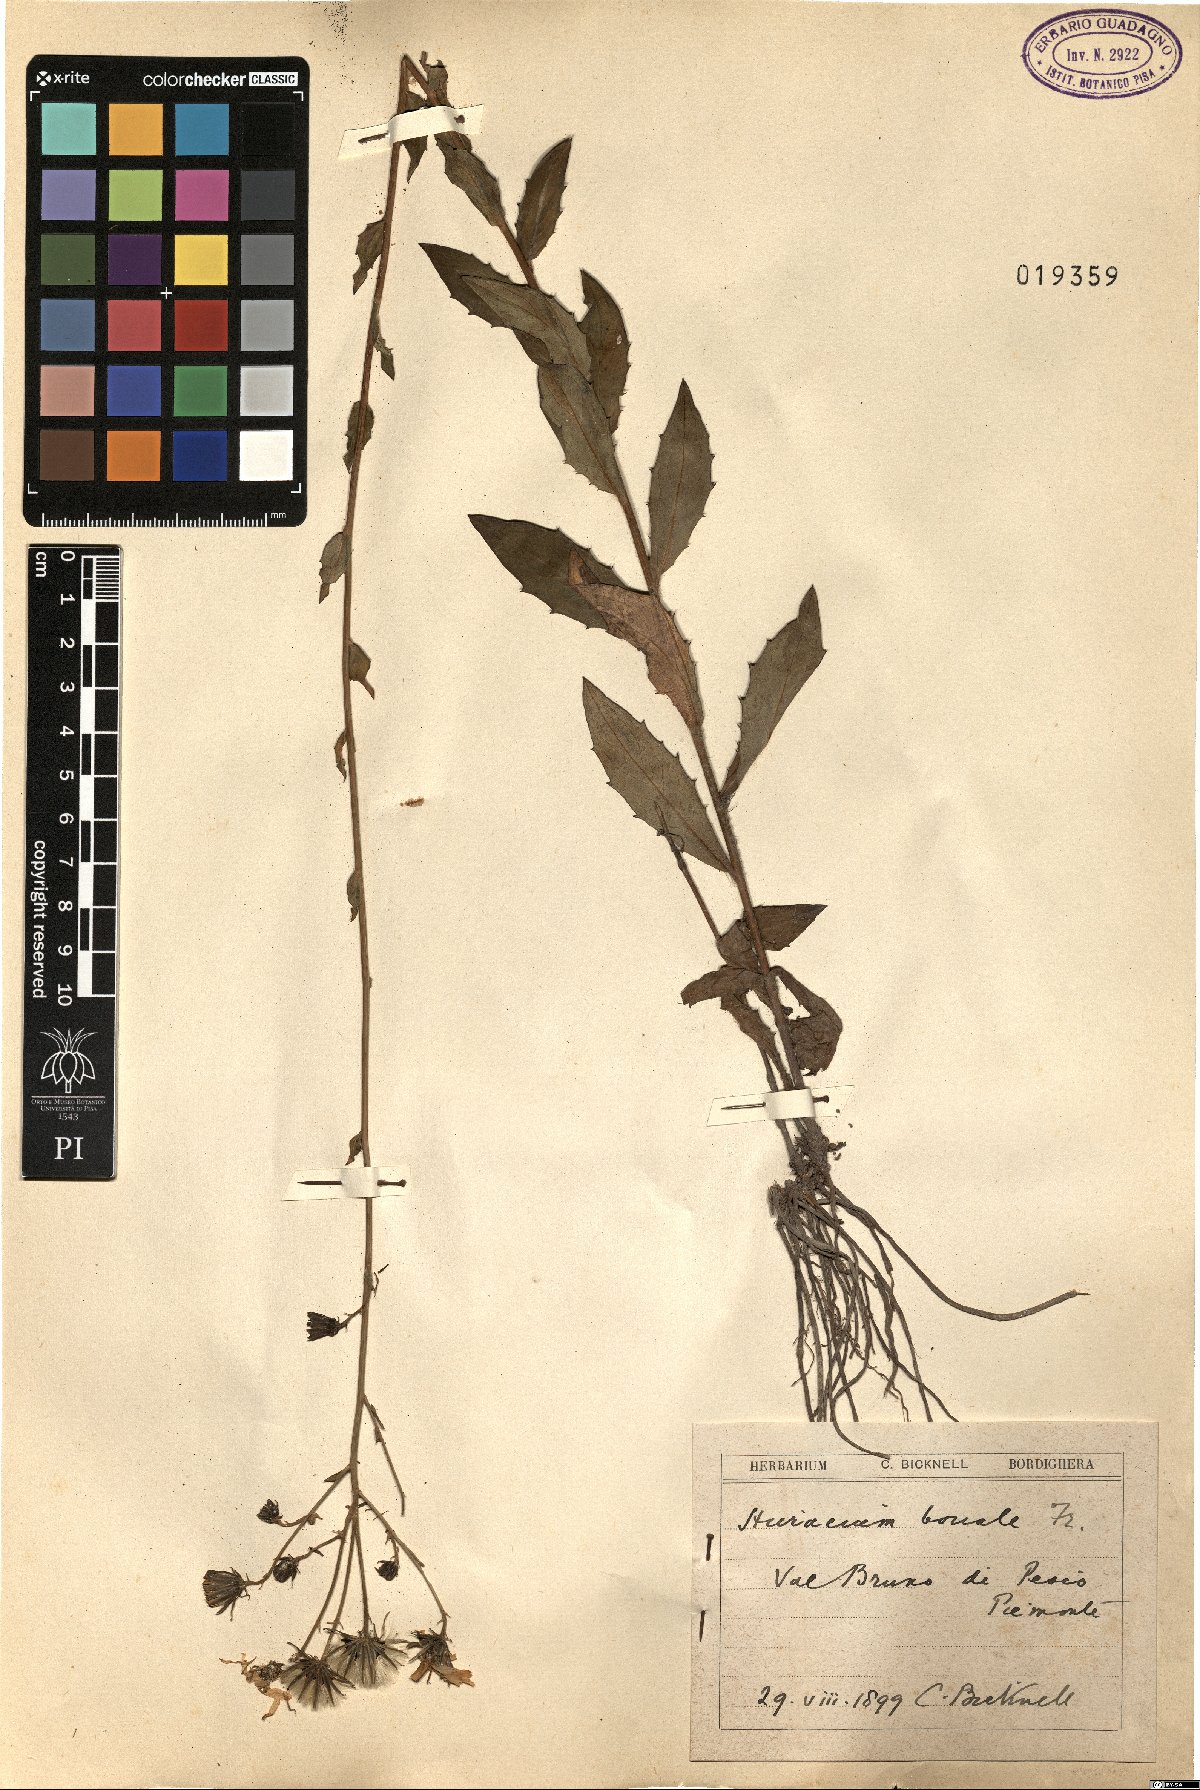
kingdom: Plantae
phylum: Tracheophyta
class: Magnoliopsida
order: Asterales
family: Asteraceae
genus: Hieracium
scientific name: Hieracium sabaudum
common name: New england hawkweed
